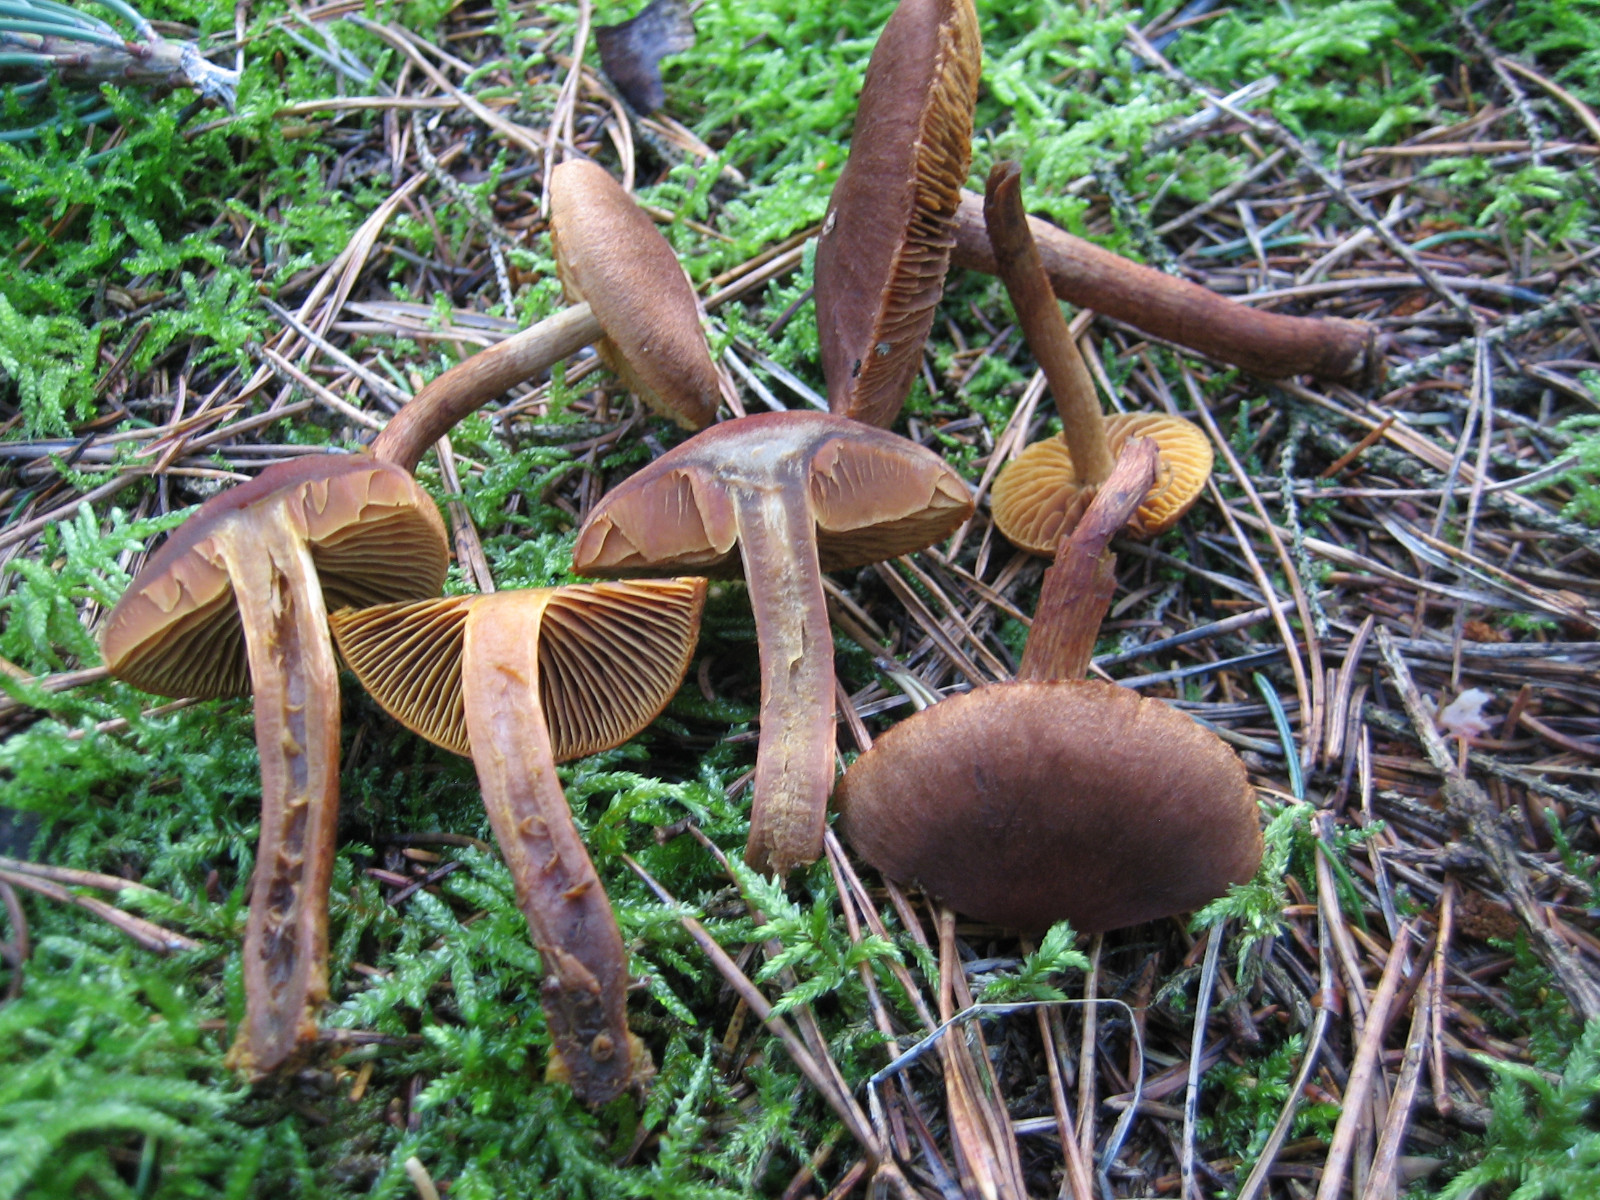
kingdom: Fungi
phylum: Basidiomycota
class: Agaricomycetes
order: Agaricales
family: Cortinariaceae
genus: Cortinarius
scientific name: Cortinarius
